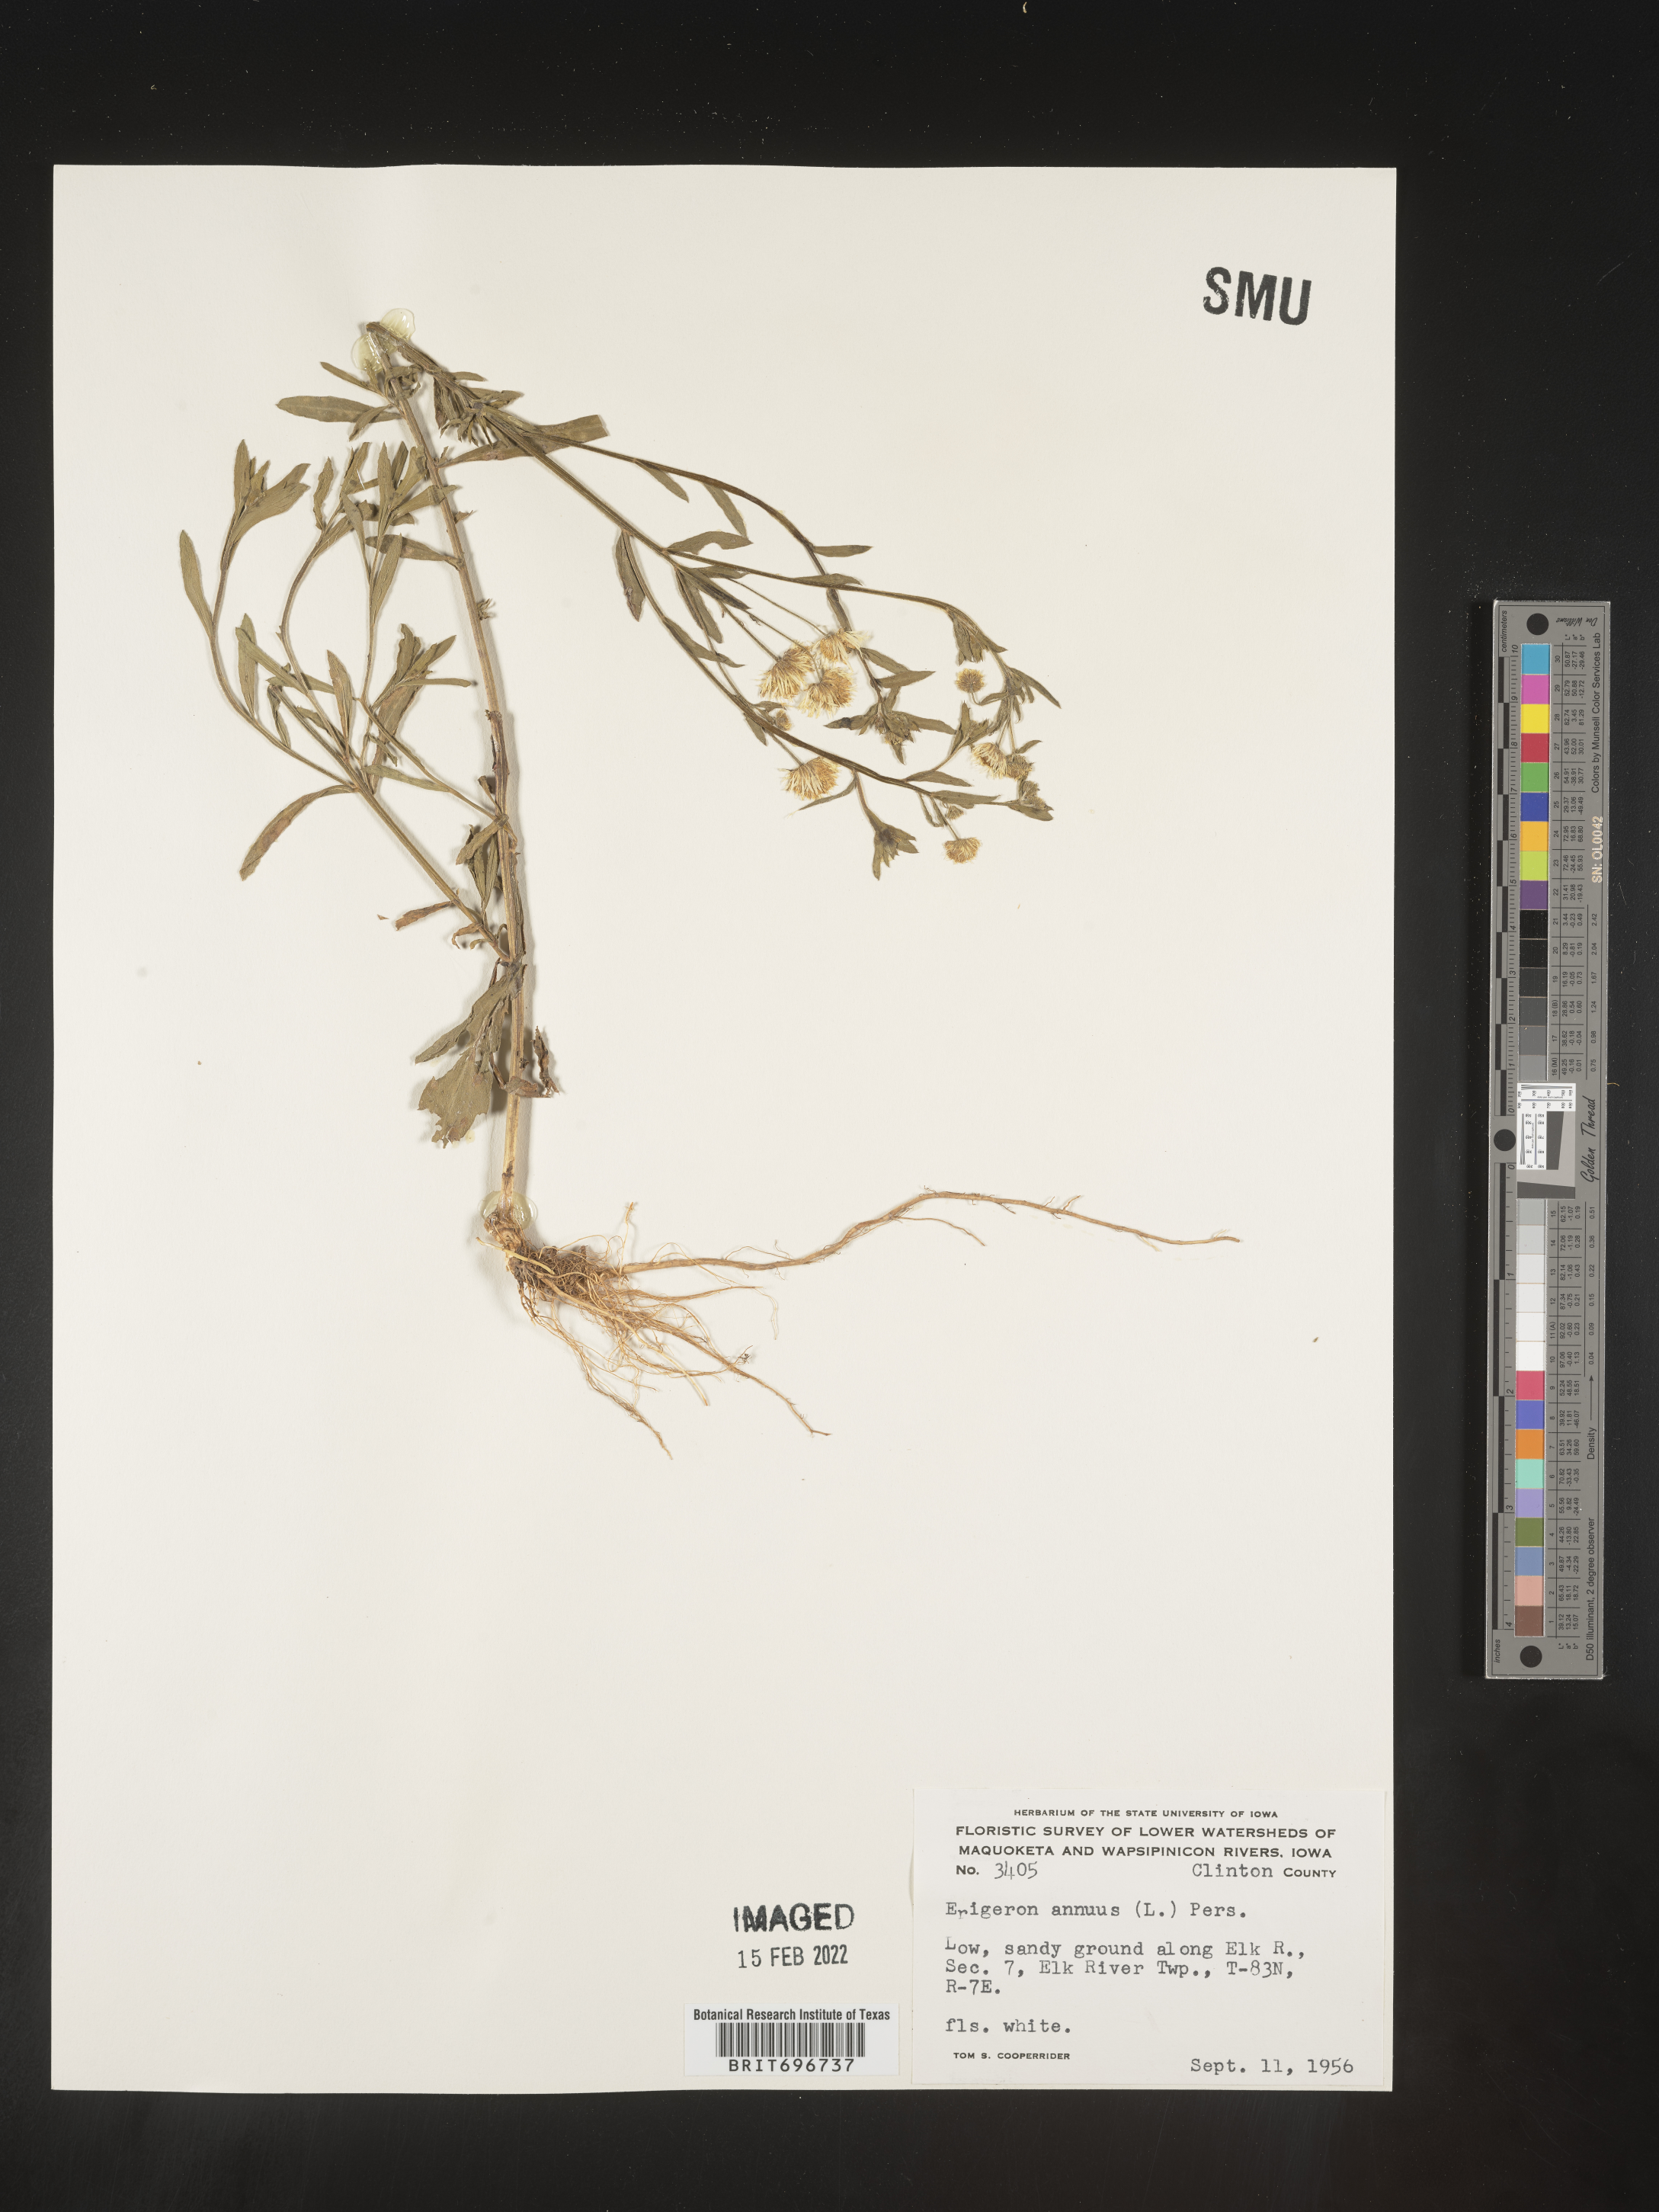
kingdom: Plantae
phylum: Tracheophyta
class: Magnoliopsida
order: Asterales
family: Asteraceae
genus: Erigeron
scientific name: Erigeron annuus
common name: Tall fleabane
